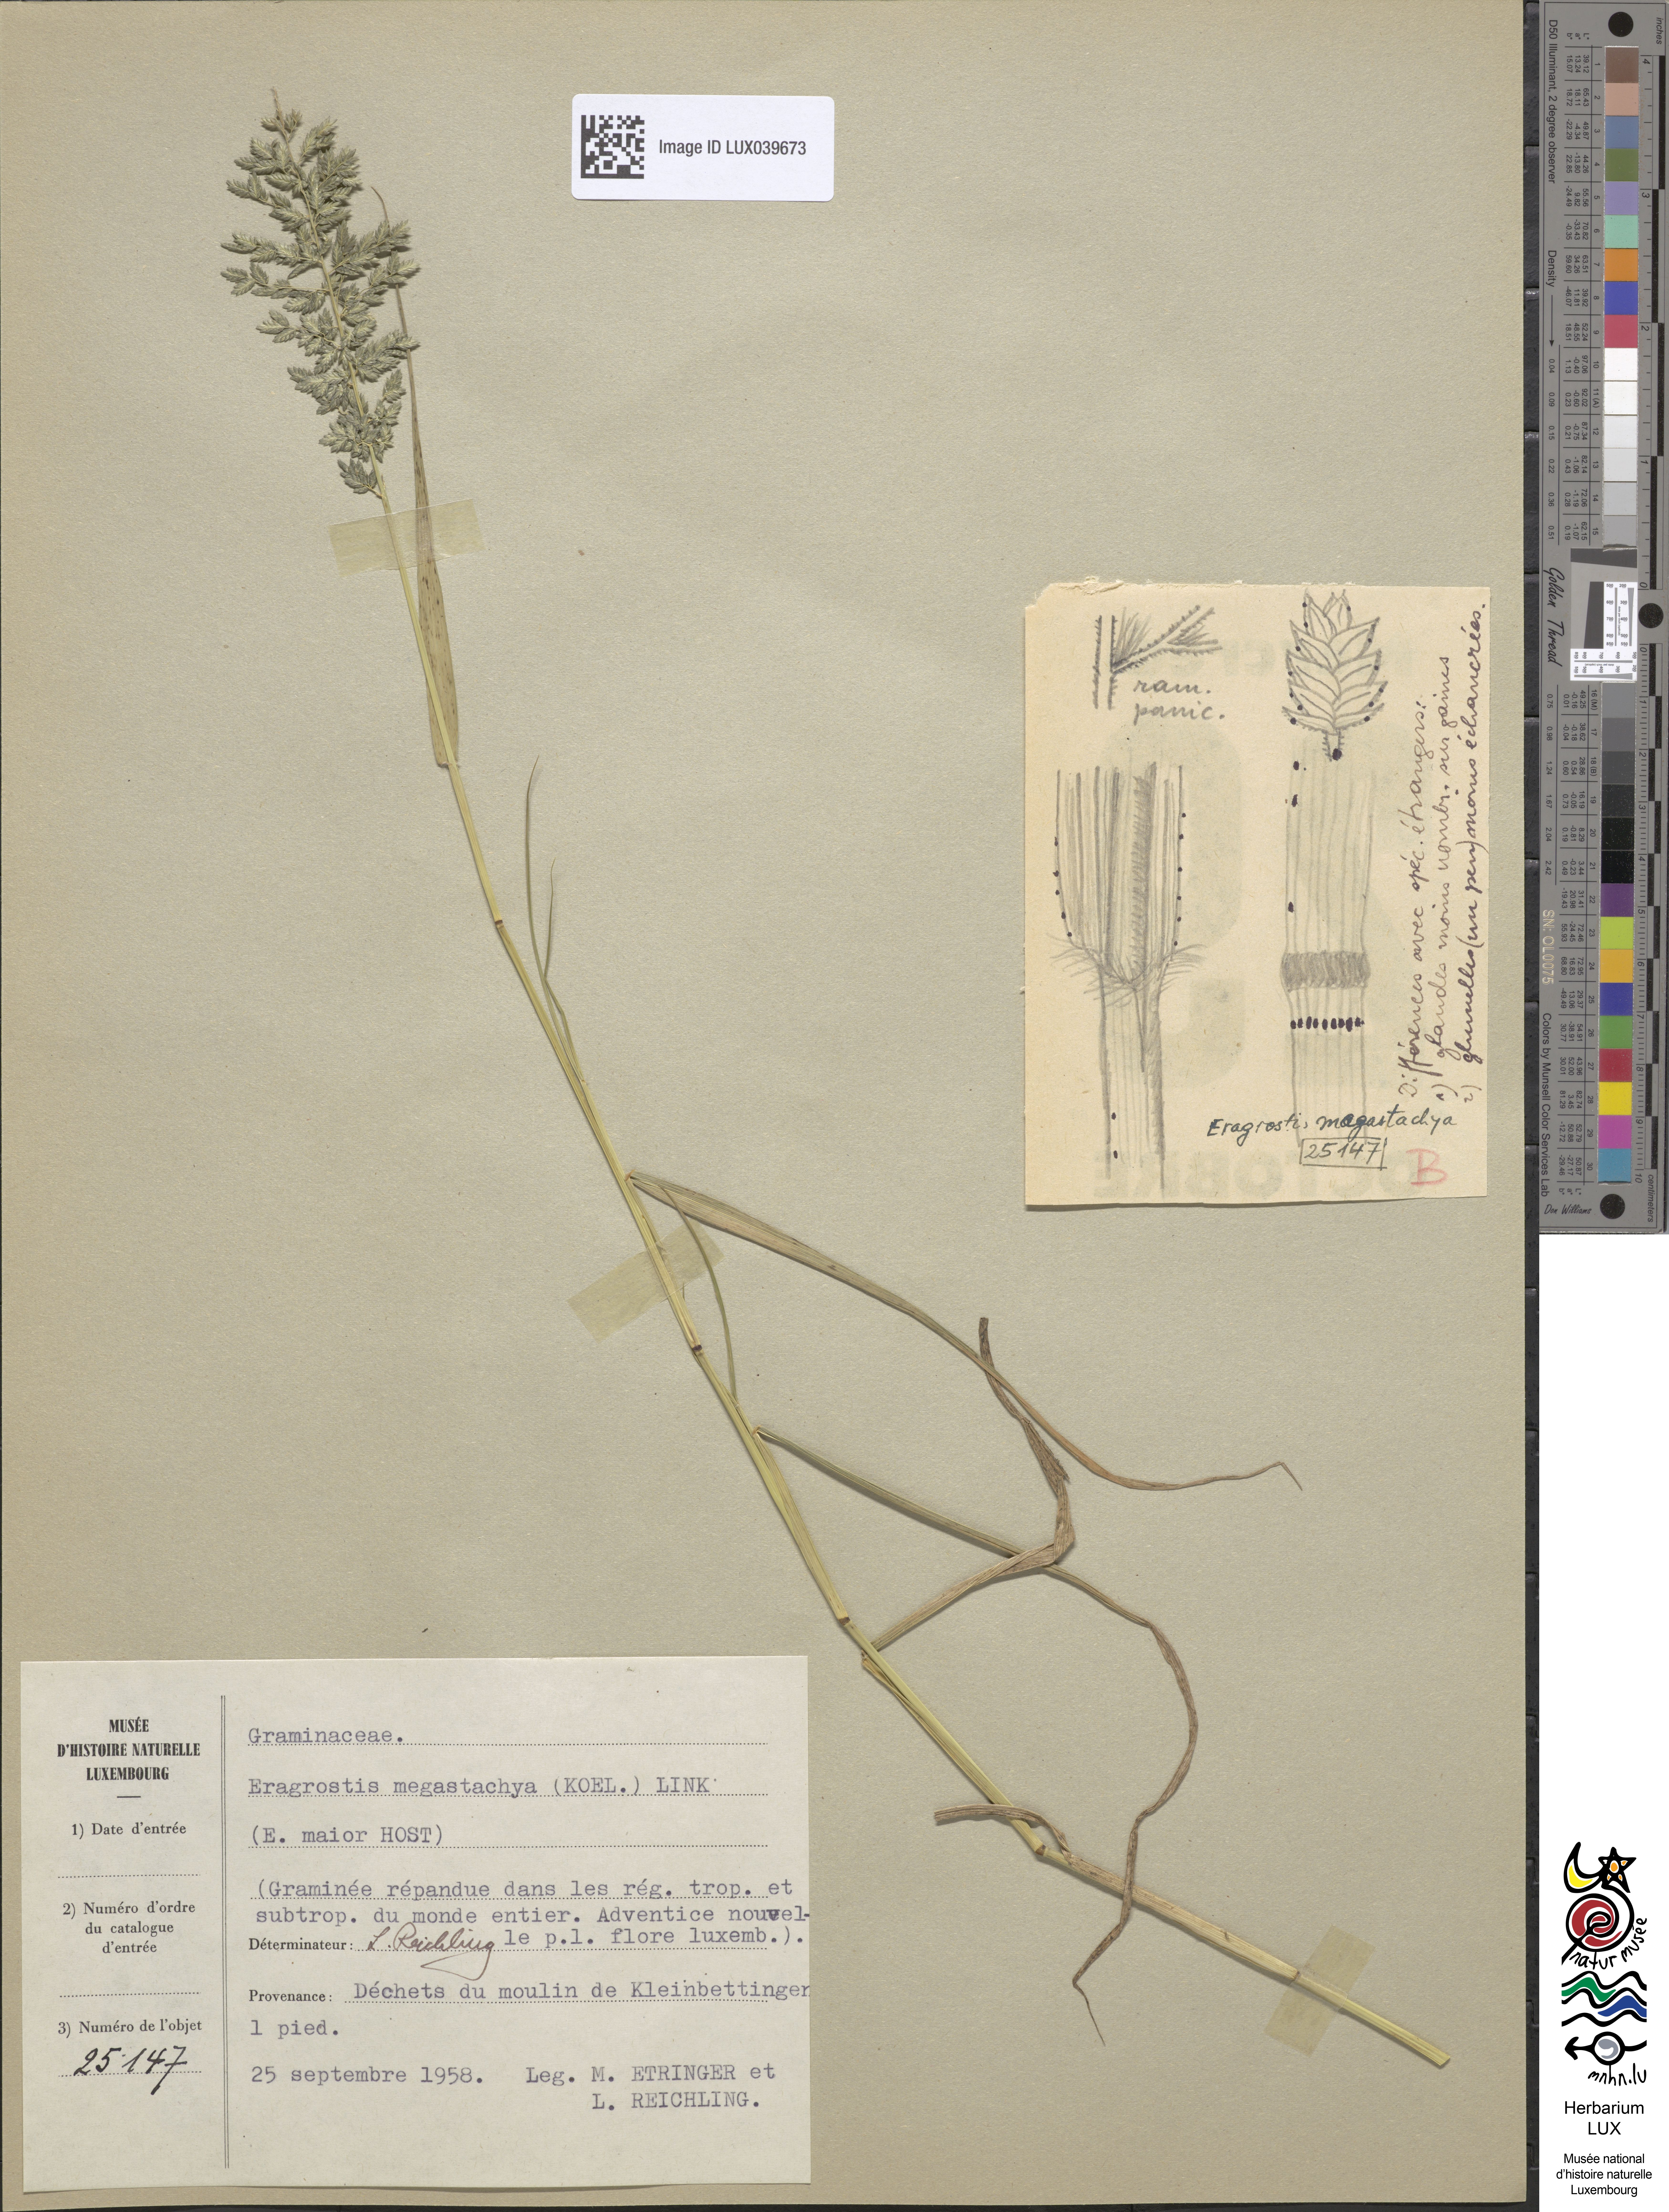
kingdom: Plantae
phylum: Tracheophyta
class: Liliopsida
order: Poales
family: Poaceae
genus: Eragrostis
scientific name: Eragrostis cilianensis
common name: Stinkgrass
